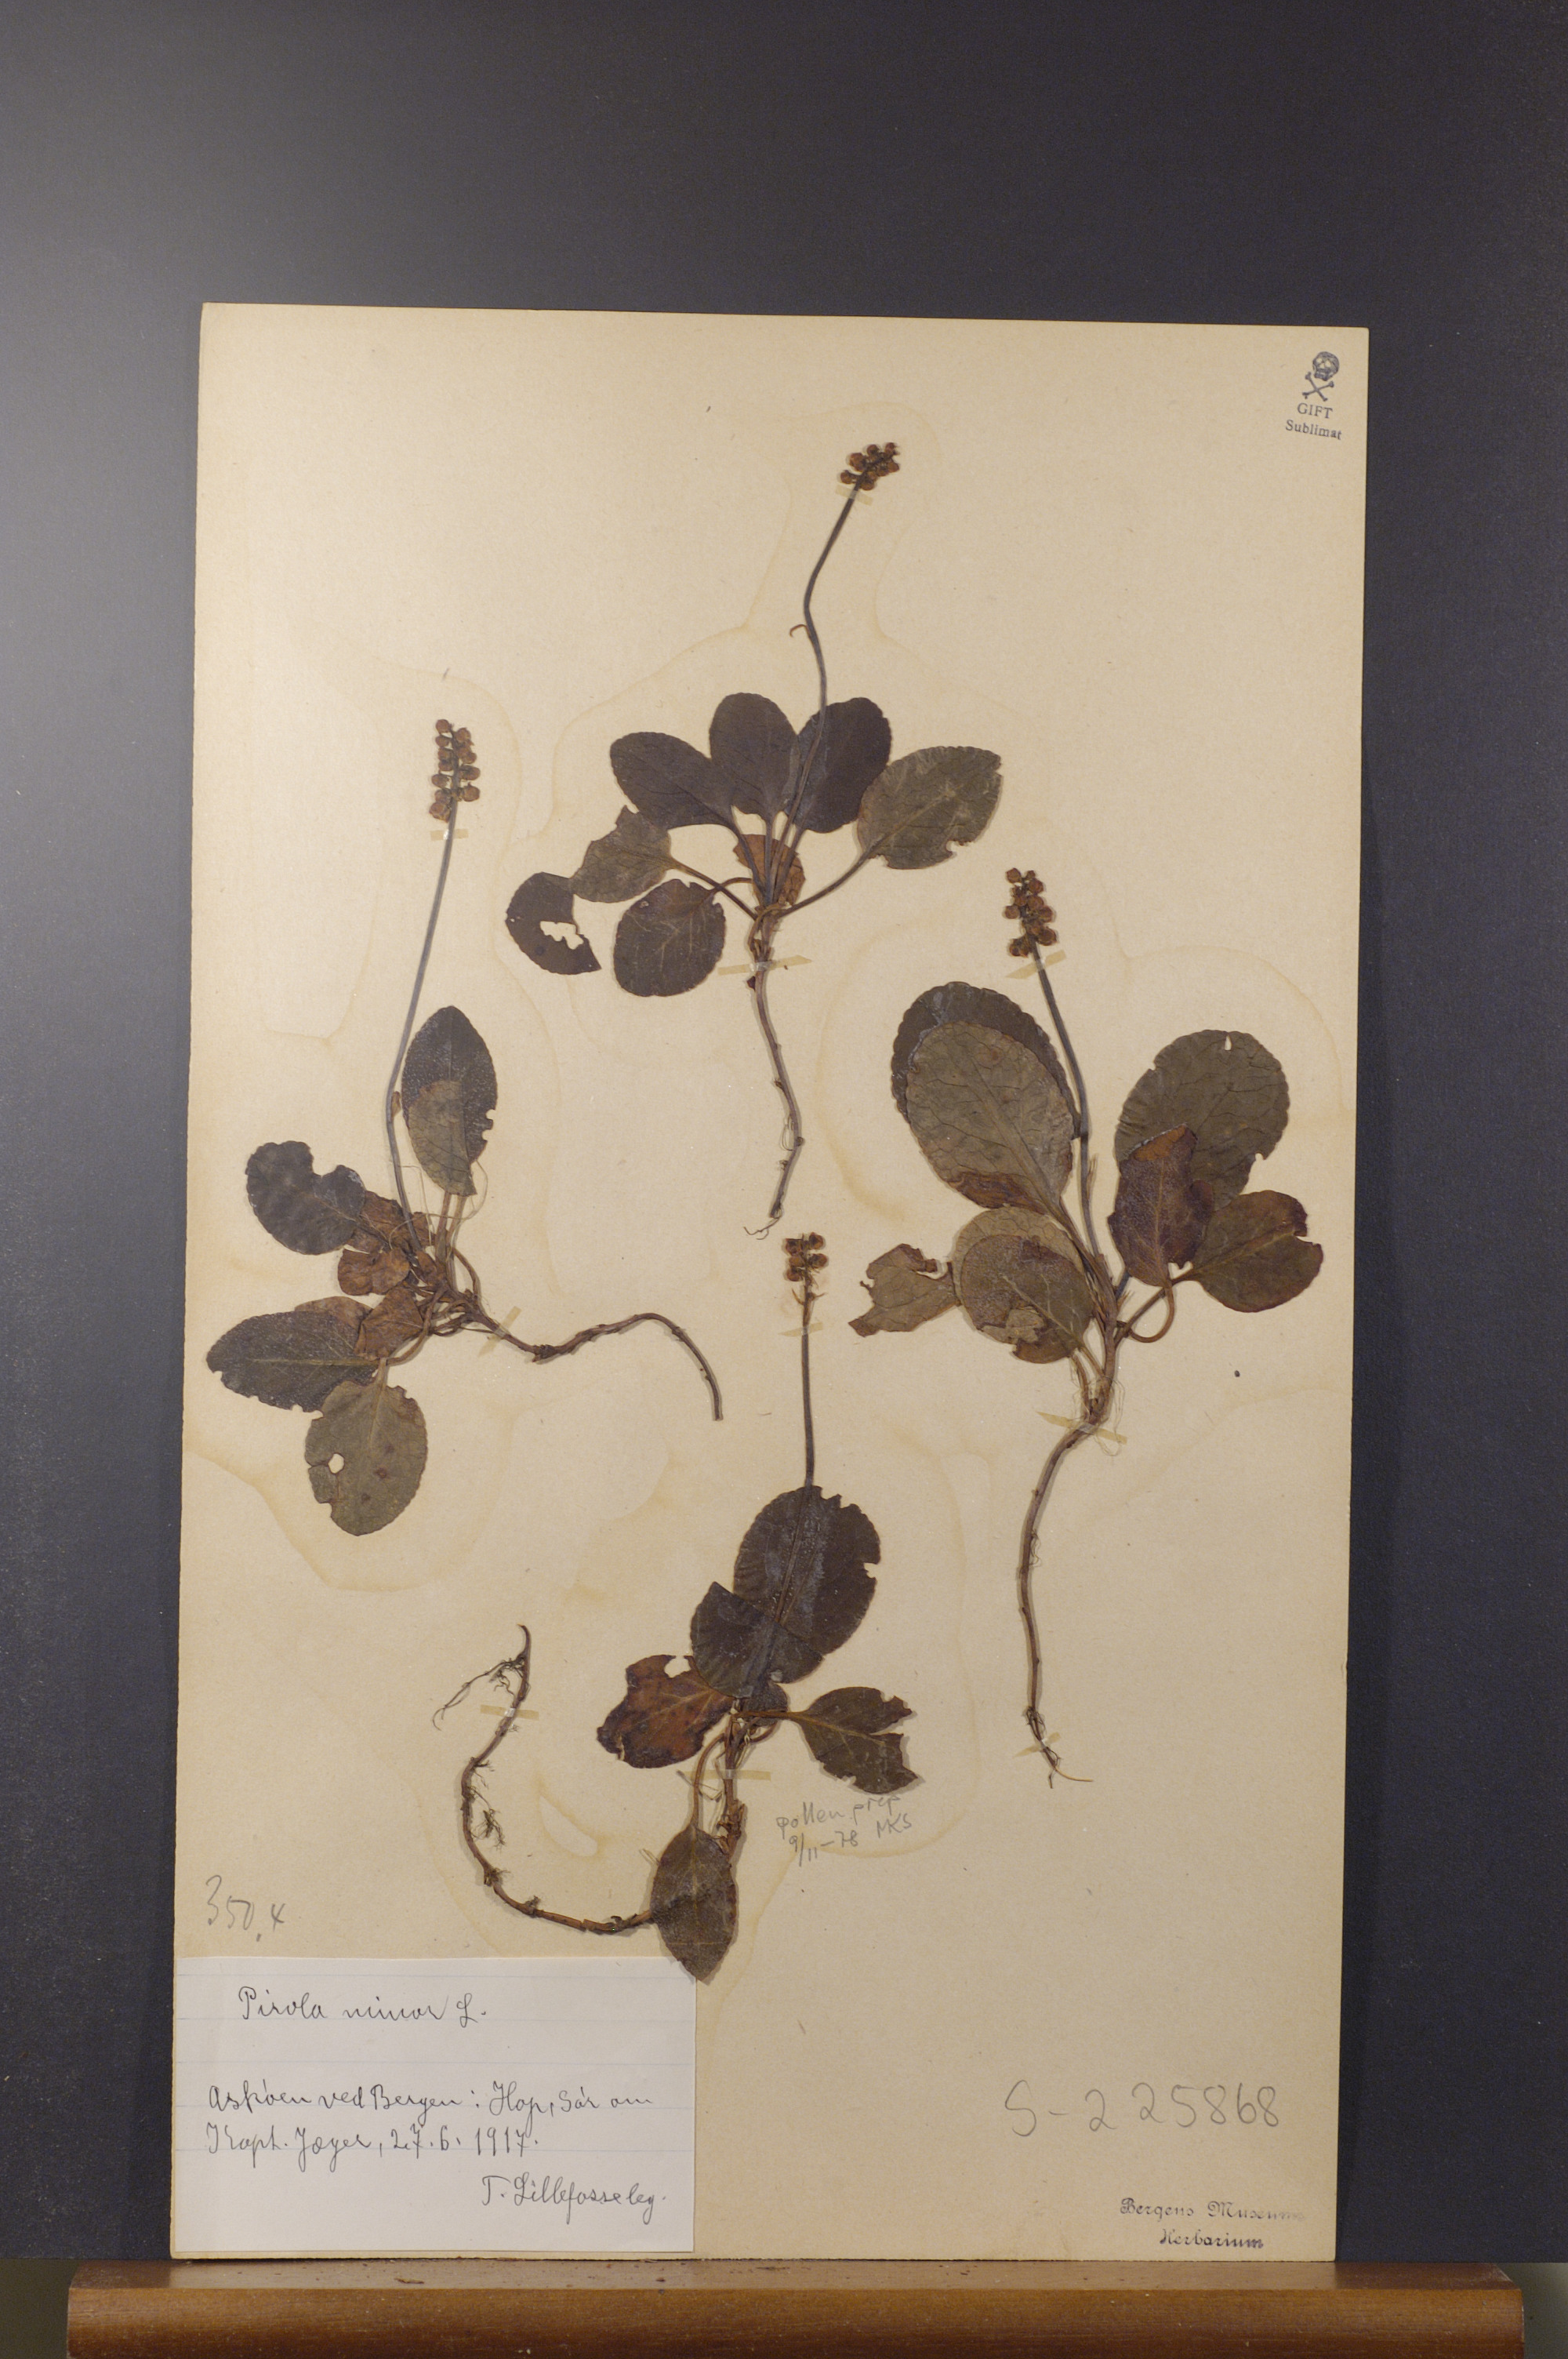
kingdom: Plantae
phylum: Tracheophyta
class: Magnoliopsida
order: Ericales
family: Ericaceae
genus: Pyrola
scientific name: Pyrola minor
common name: Common wintergreen
